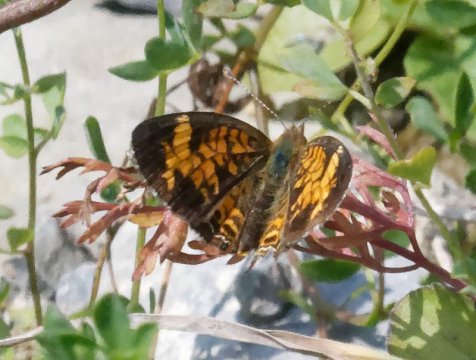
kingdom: Animalia
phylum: Arthropoda
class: Insecta
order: Lepidoptera
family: Nymphalidae
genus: Phyciodes
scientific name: Phyciodes
